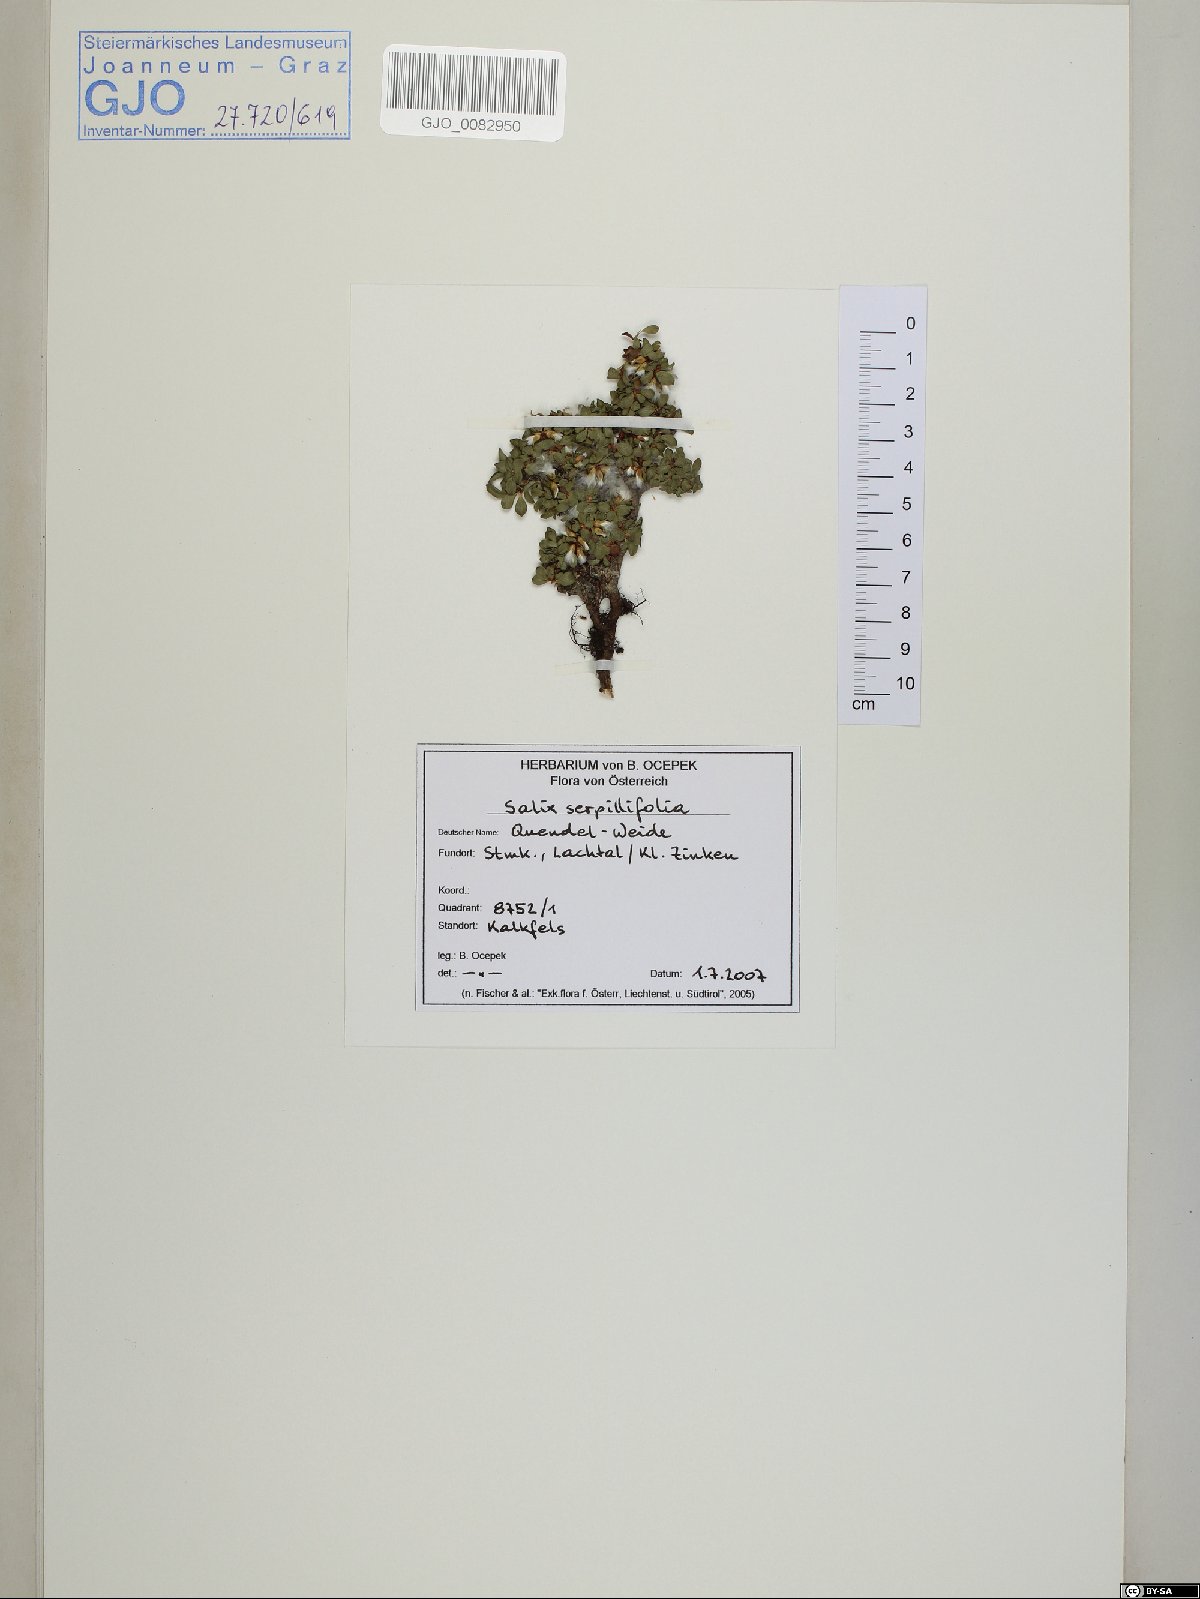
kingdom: Plantae
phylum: Tracheophyta
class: Magnoliopsida
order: Malpighiales
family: Salicaceae
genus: Salix
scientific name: Salix serpillifolia
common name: Thyme-leaf willow
